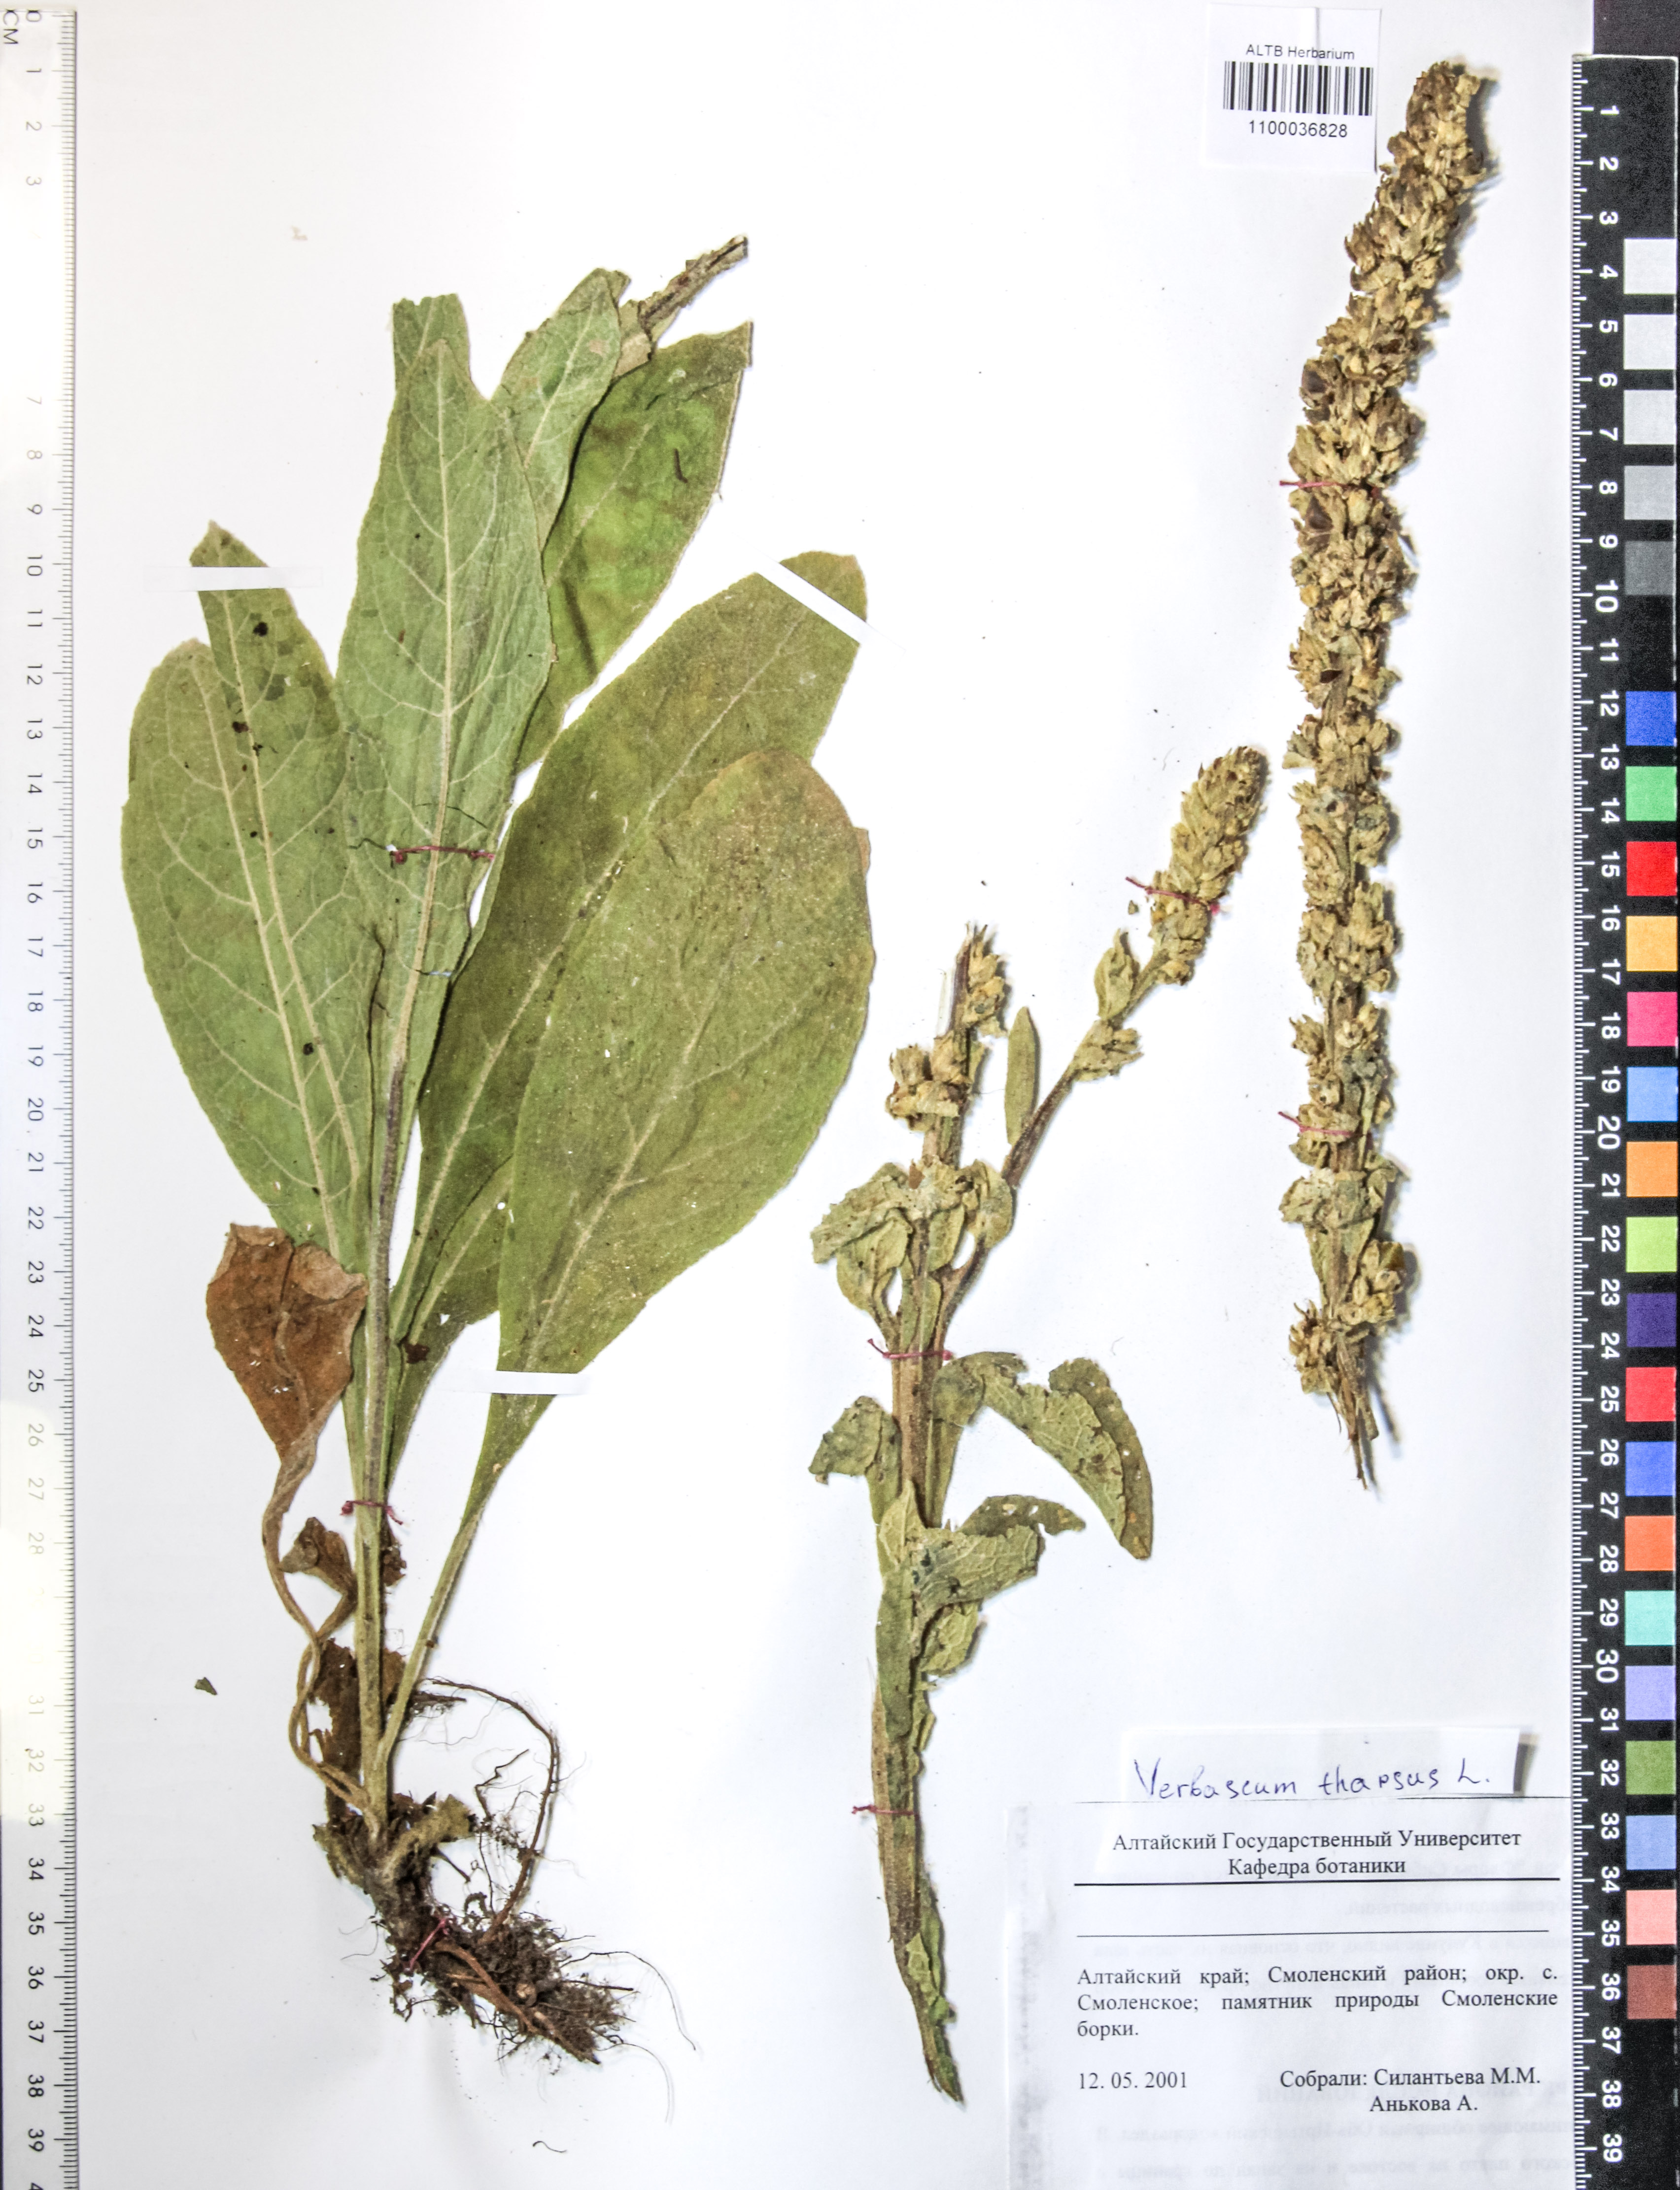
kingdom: Plantae
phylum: Tracheophyta
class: Magnoliopsida
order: Lamiales
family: Scrophulariaceae
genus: Verbascum
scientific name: Verbascum thapsus
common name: Common mullein
